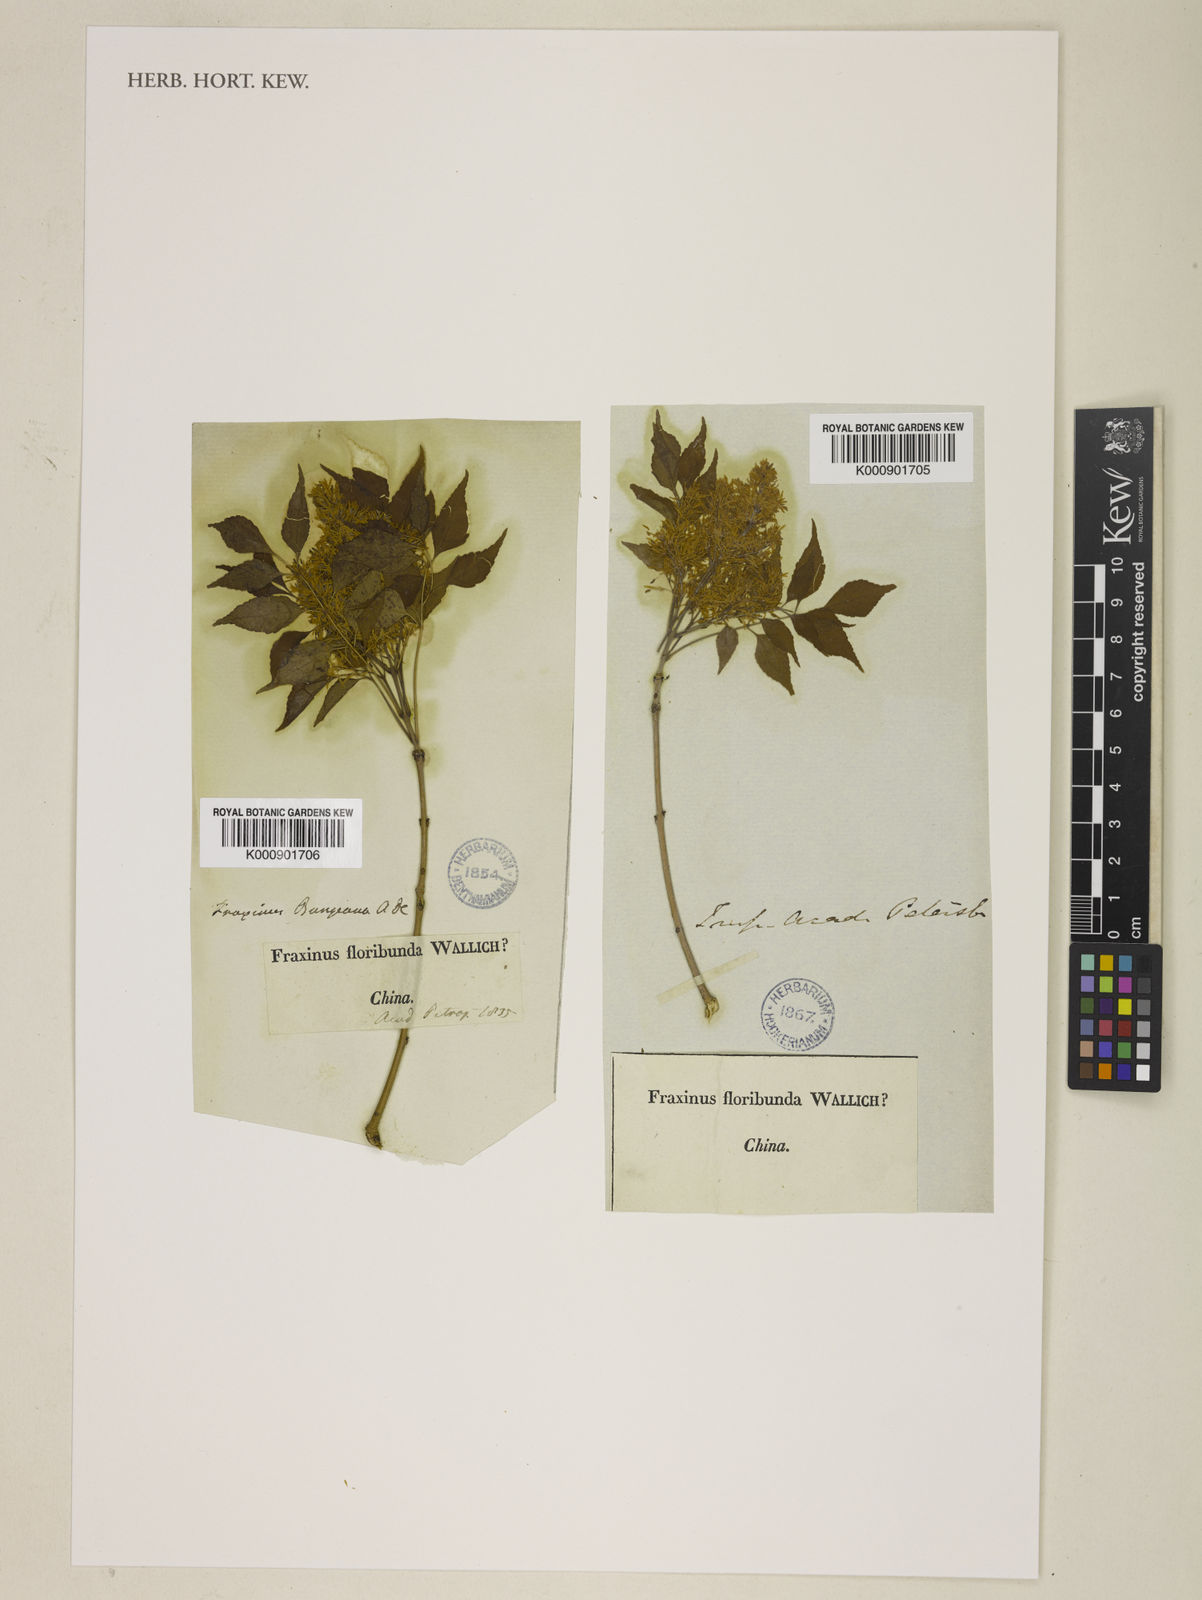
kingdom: Plantae
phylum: Tracheophyta
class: Magnoliopsida
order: Lamiales
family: Oleaceae
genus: Fraxinus
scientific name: Fraxinus bungeana
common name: Northern ash
